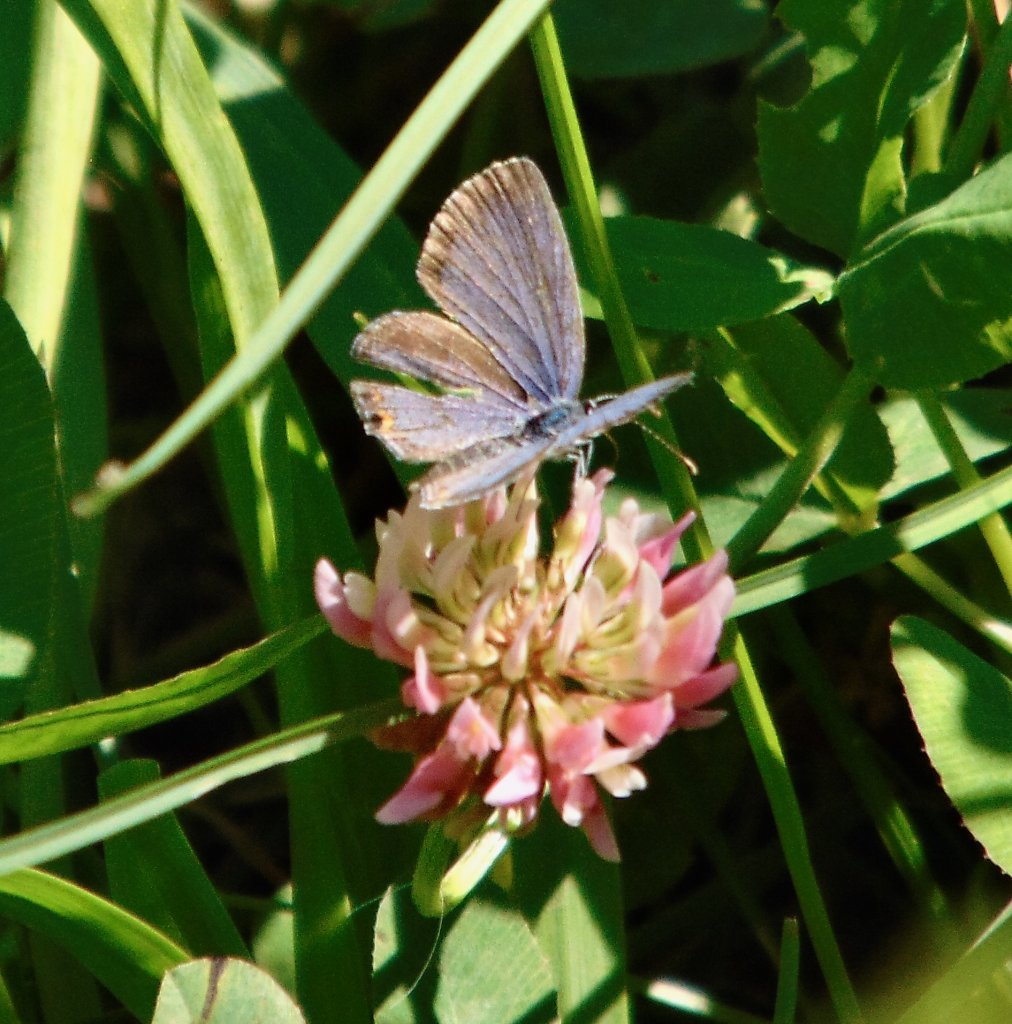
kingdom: Animalia
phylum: Arthropoda
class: Insecta
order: Lepidoptera
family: Lycaenidae
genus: Elkalyce
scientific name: Elkalyce comyntas
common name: Eastern Tailed-Blue
